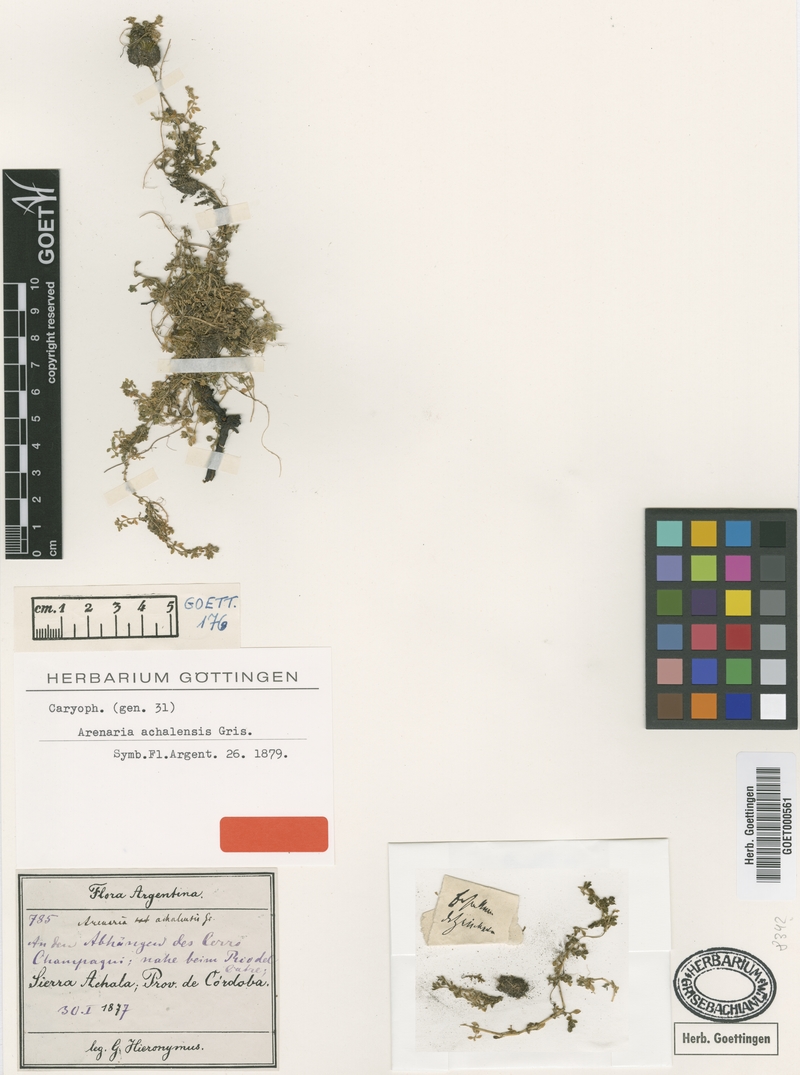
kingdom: Plantae
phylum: Tracheophyta
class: Magnoliopsida
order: Caryophyllales
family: Caryophyllaceae
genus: Arenaria
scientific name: Arenaria achalensis
